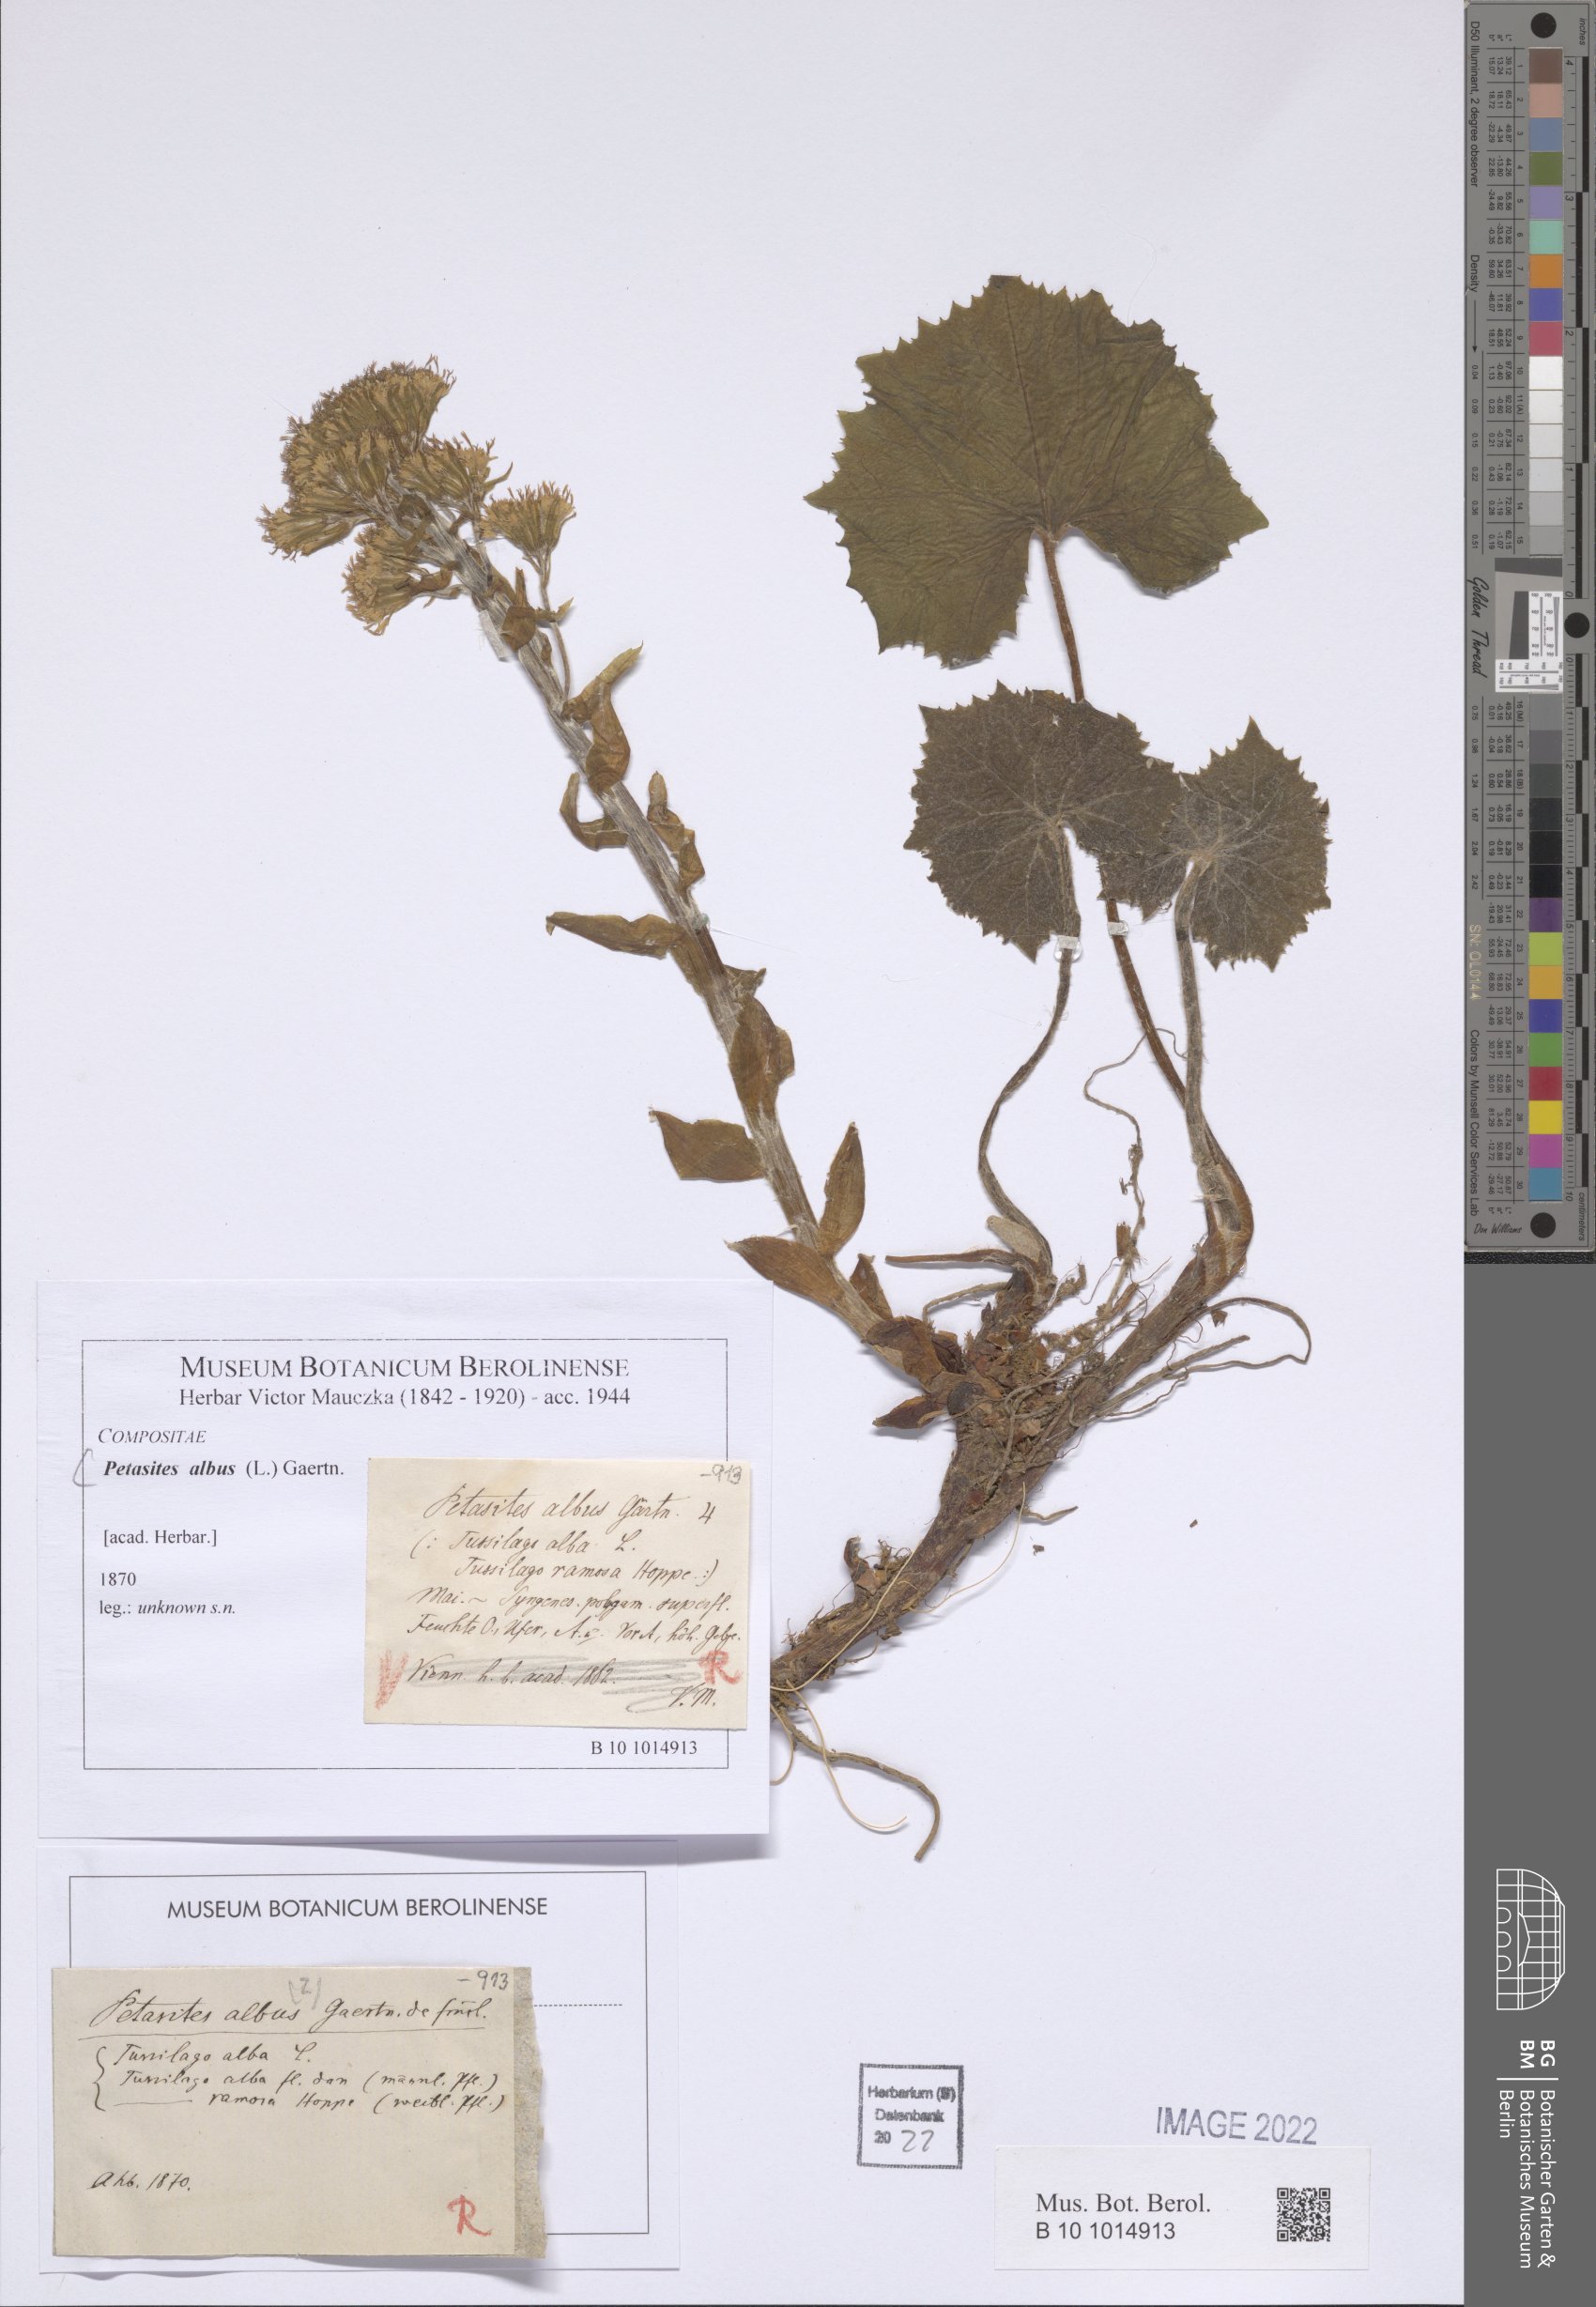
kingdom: Plantae
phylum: Tracheophyta
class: Magnoliopsida
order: Asterales
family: Asteraceae
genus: Petasites
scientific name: Petasites albus
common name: White butterbur
